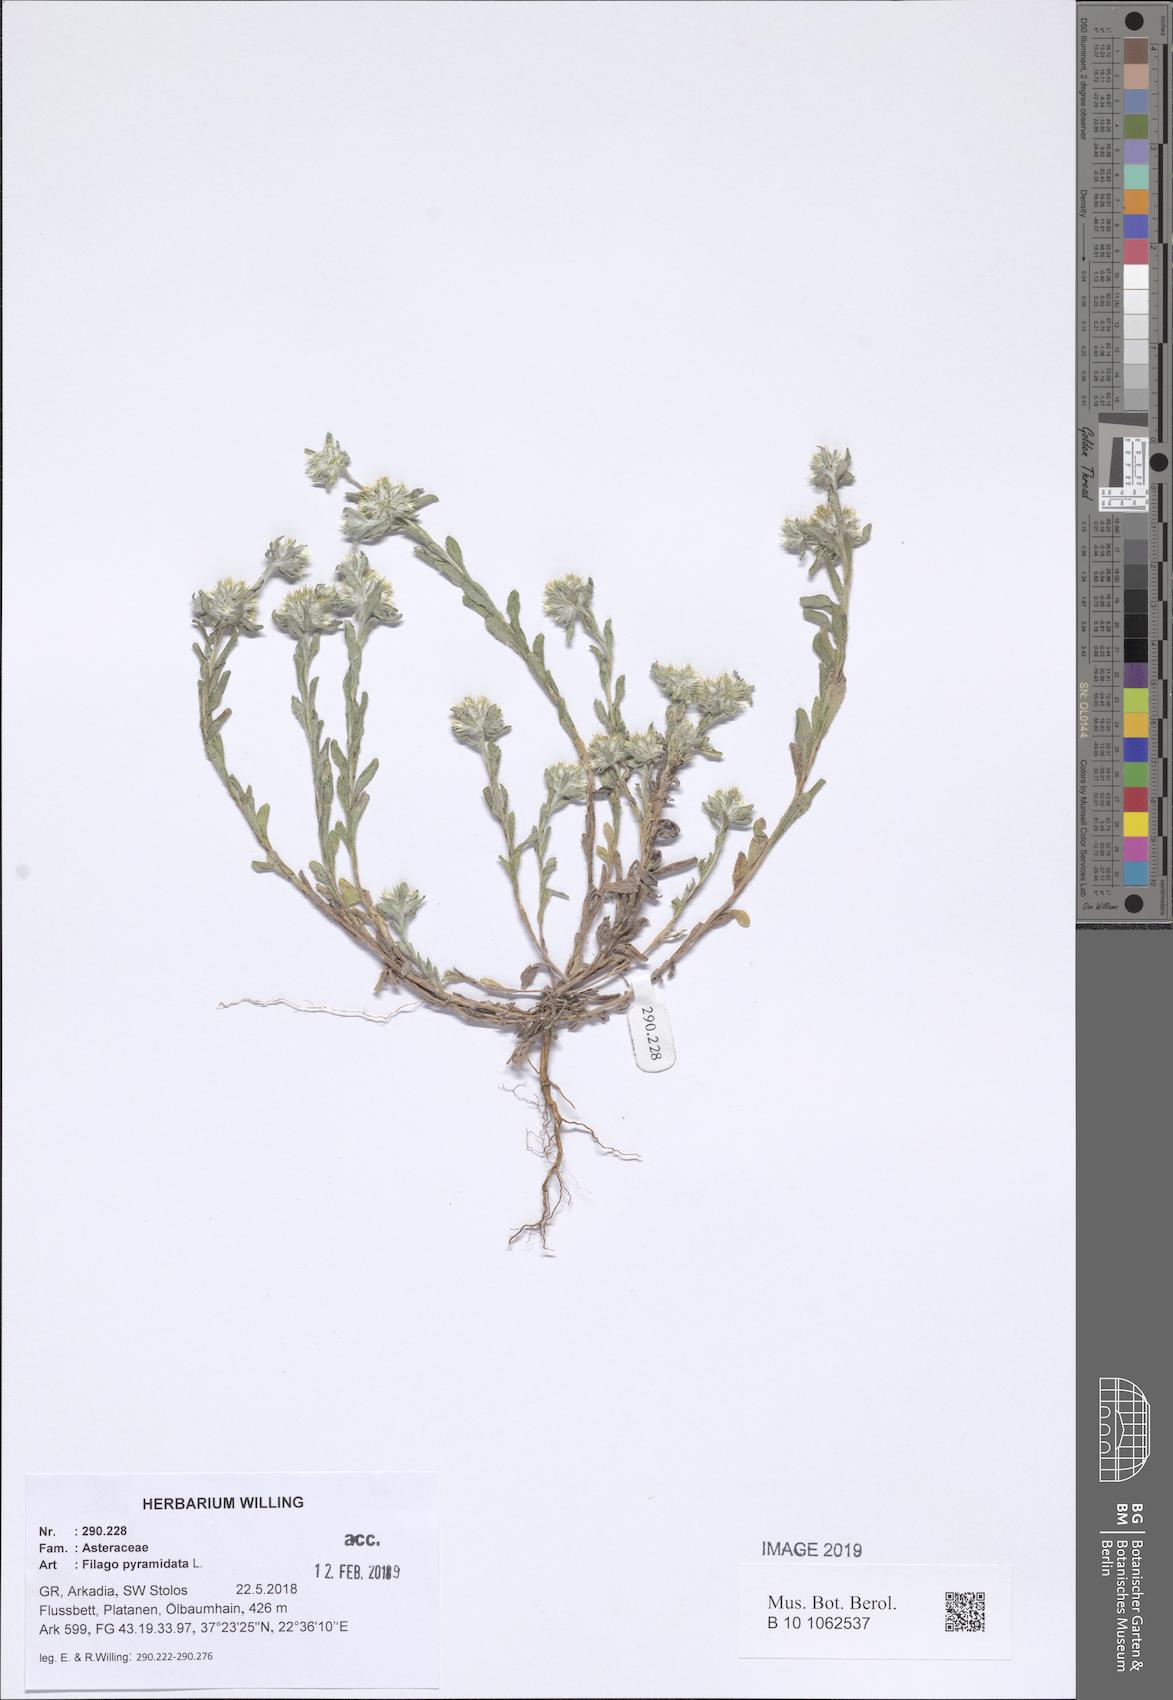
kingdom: Plantae
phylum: Tracheophyta
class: Magnoliopsida
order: Asterales
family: Asteraceae
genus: Filago
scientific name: Filago pyramidata
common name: Broad-leaved cudweed
